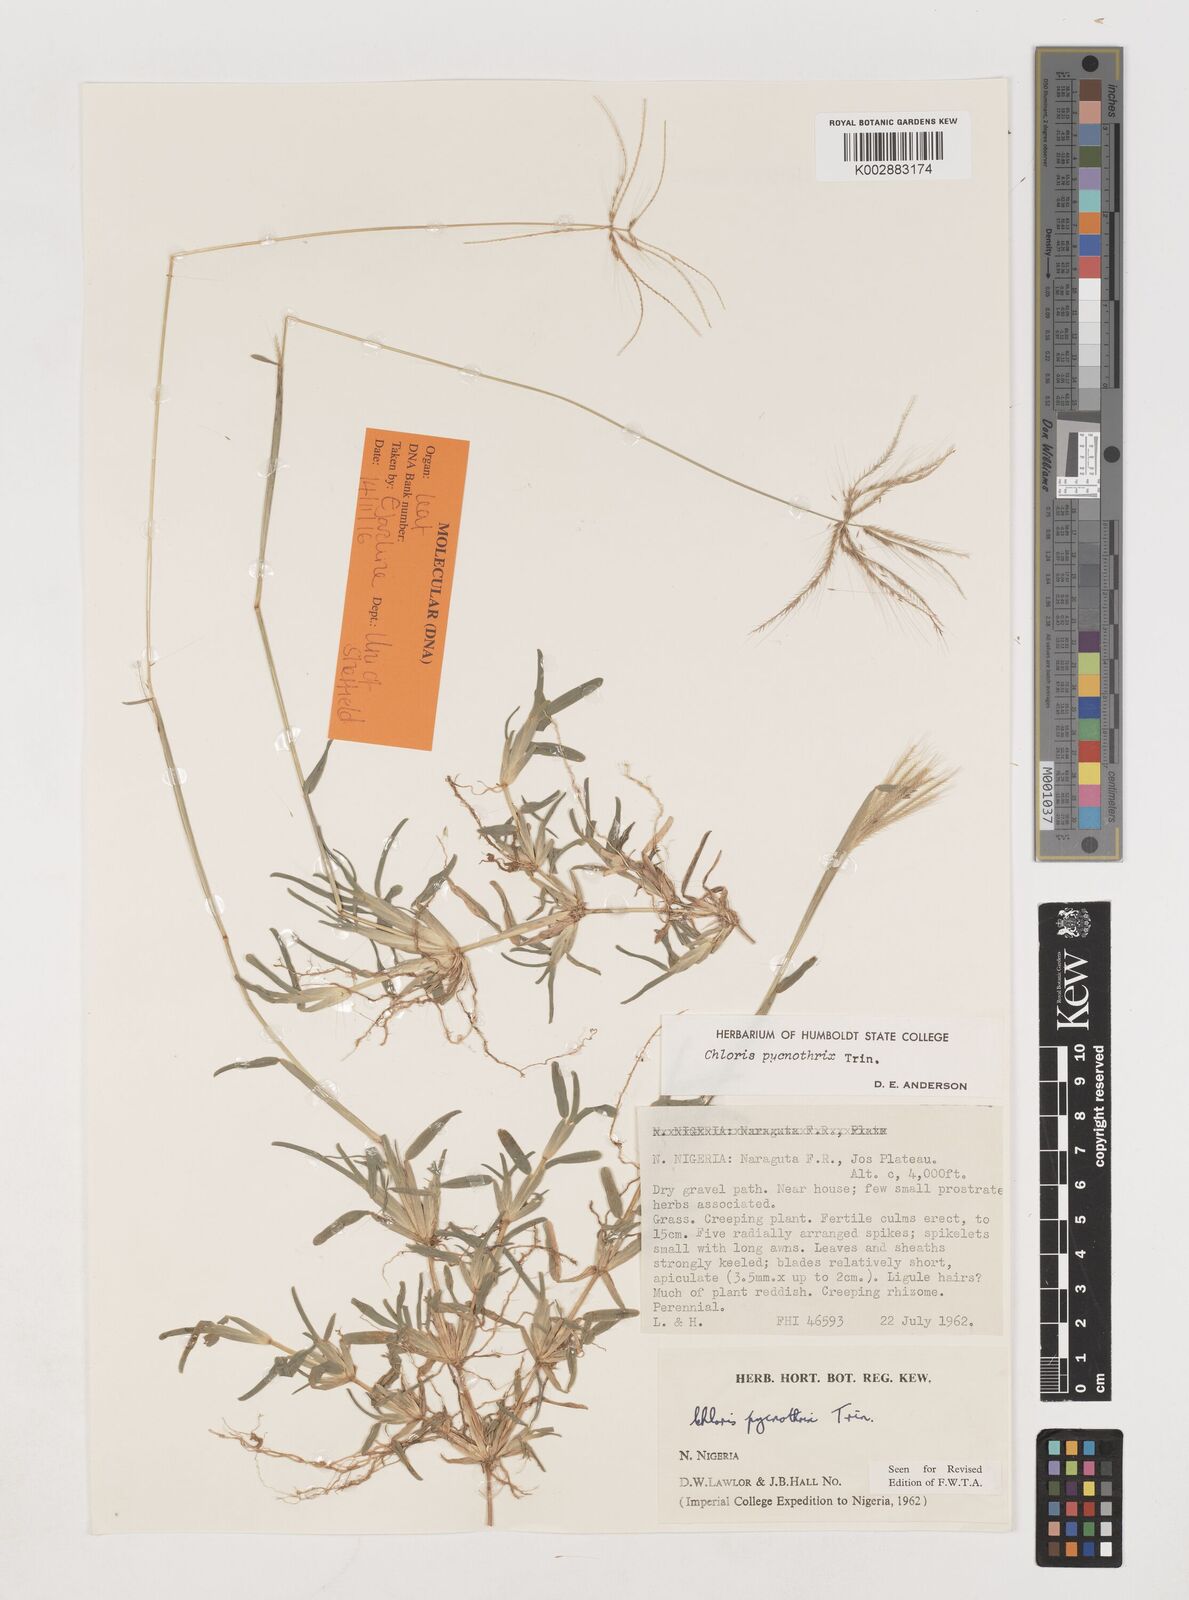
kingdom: Plantae
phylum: Tracheophyta
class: Liliopsida
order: Poales
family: Poaceae
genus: Chloris
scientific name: Chloris pycnothrix
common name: Spiderweb chloris
